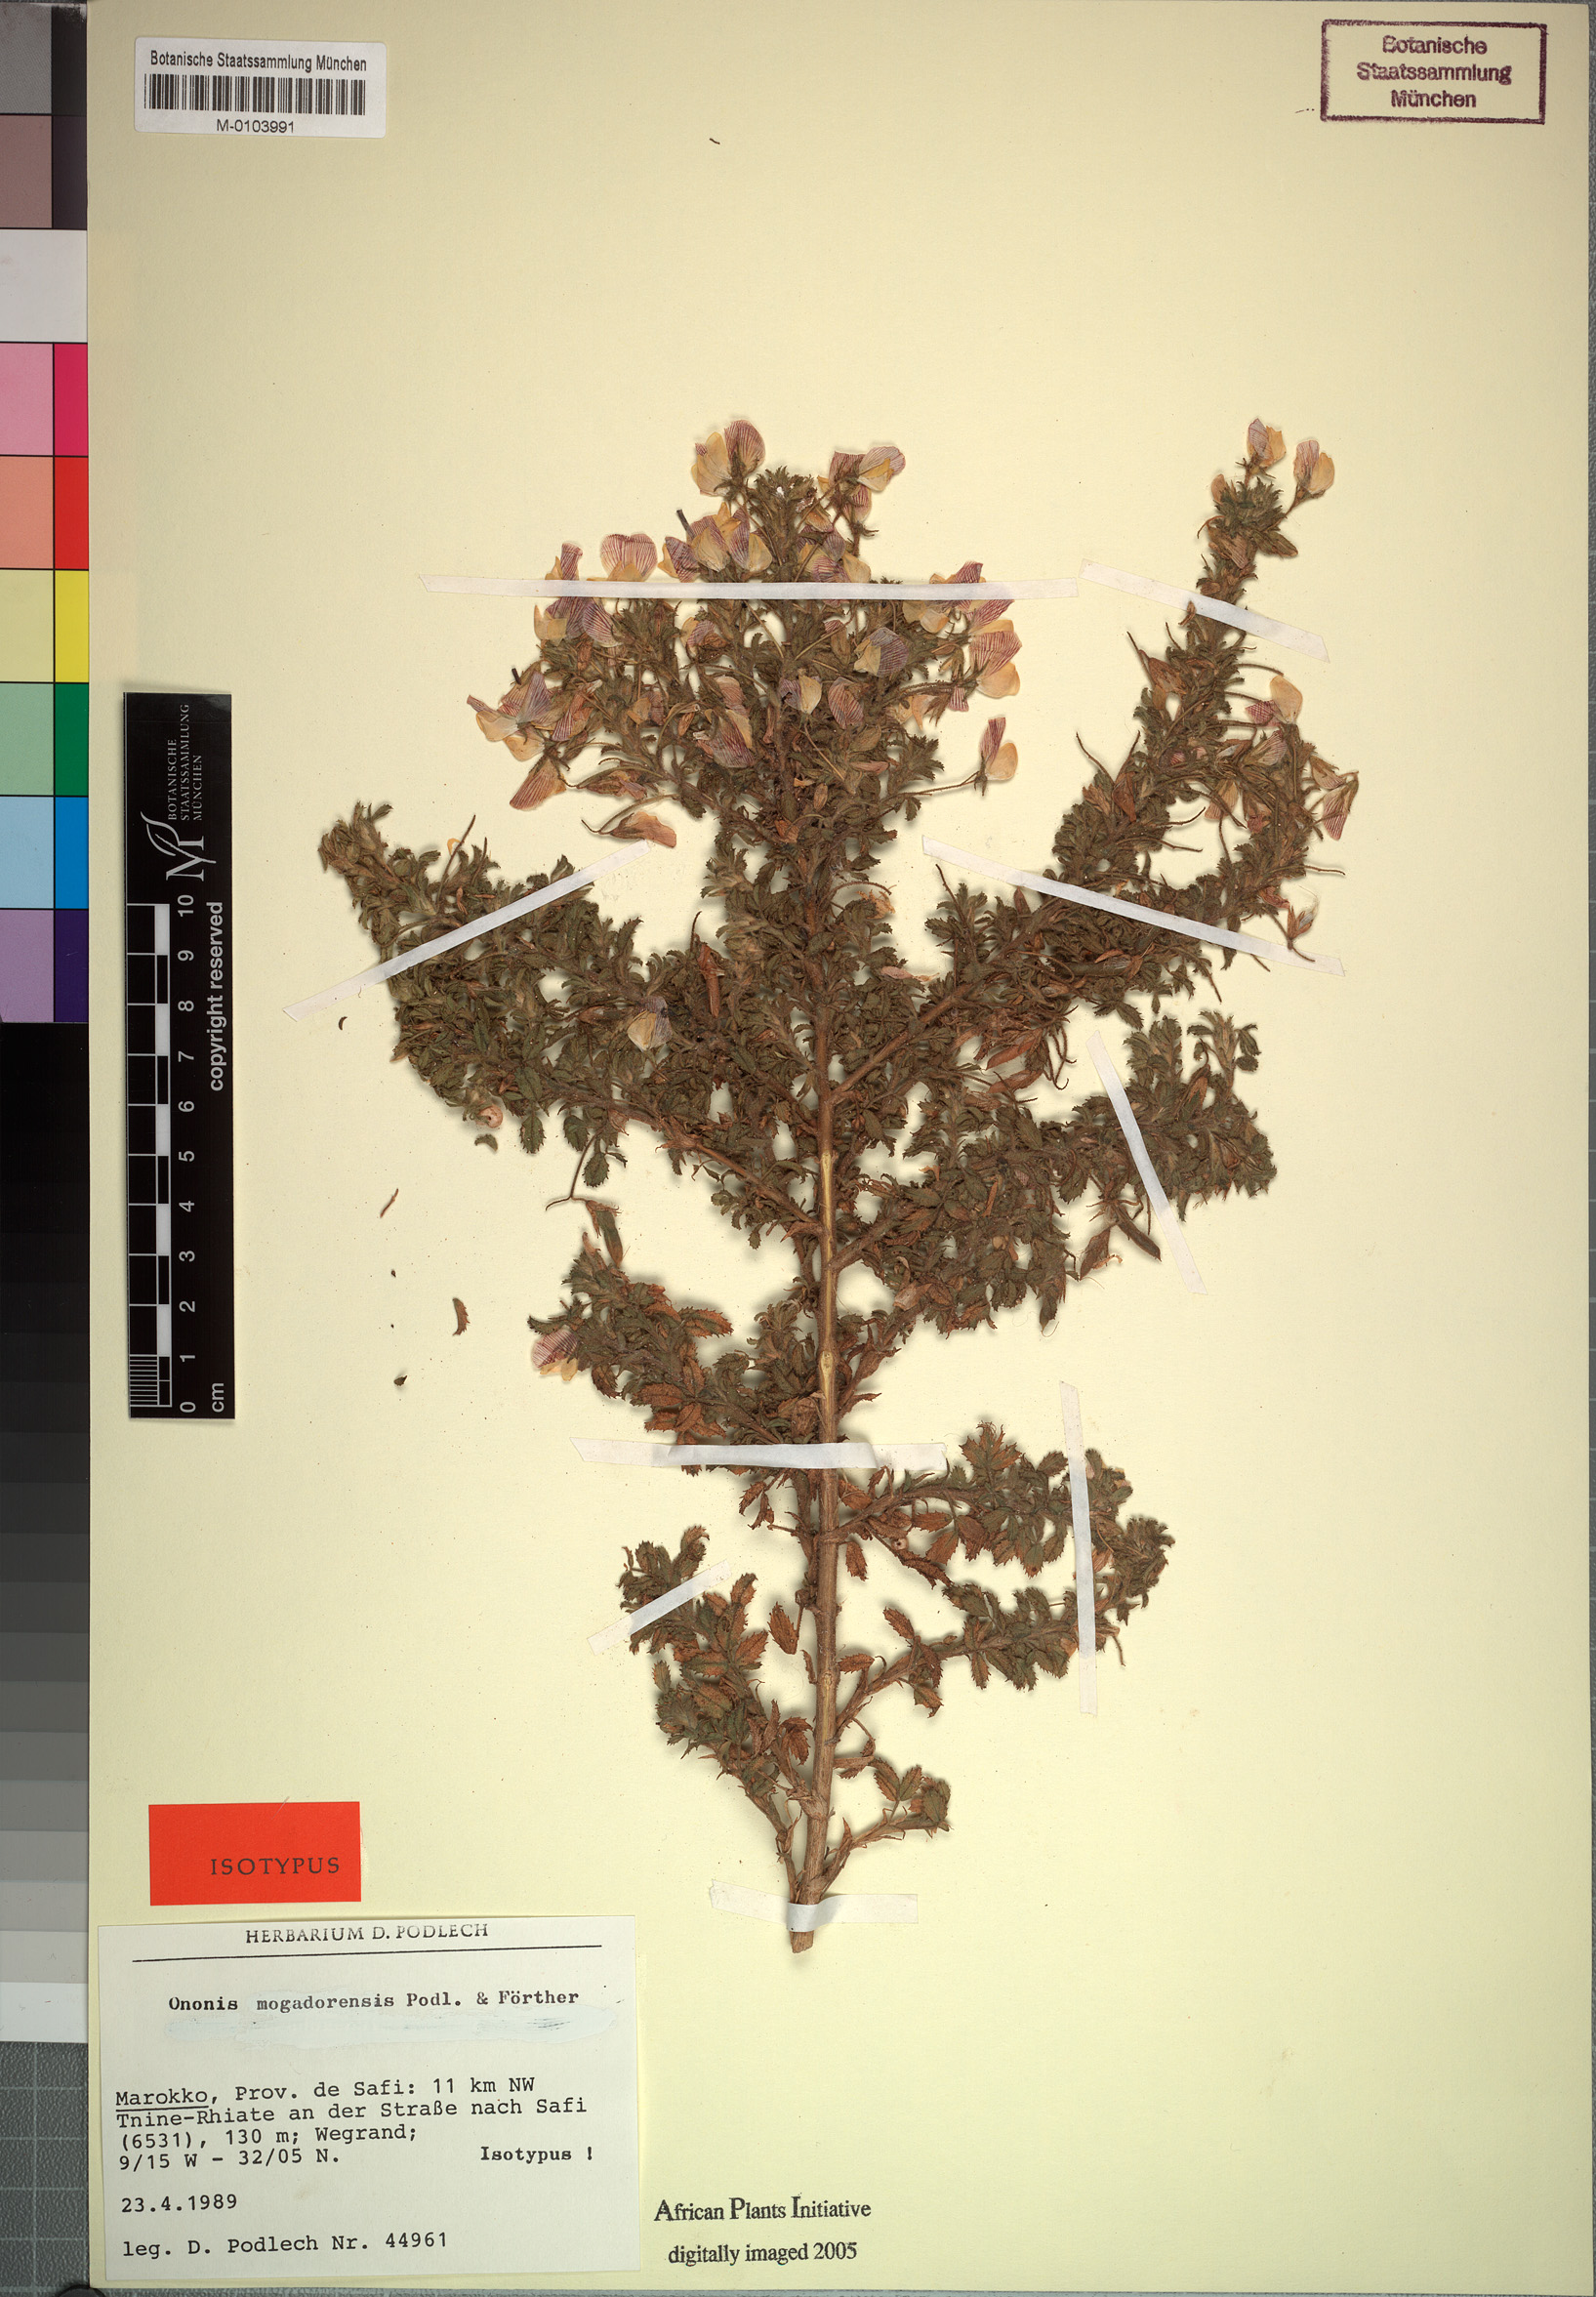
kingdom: Plantae
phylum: Tracheophyta
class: Magnoliopsida
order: Fabales
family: Fabaceae
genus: Ononis
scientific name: Ononis mogadorensis
